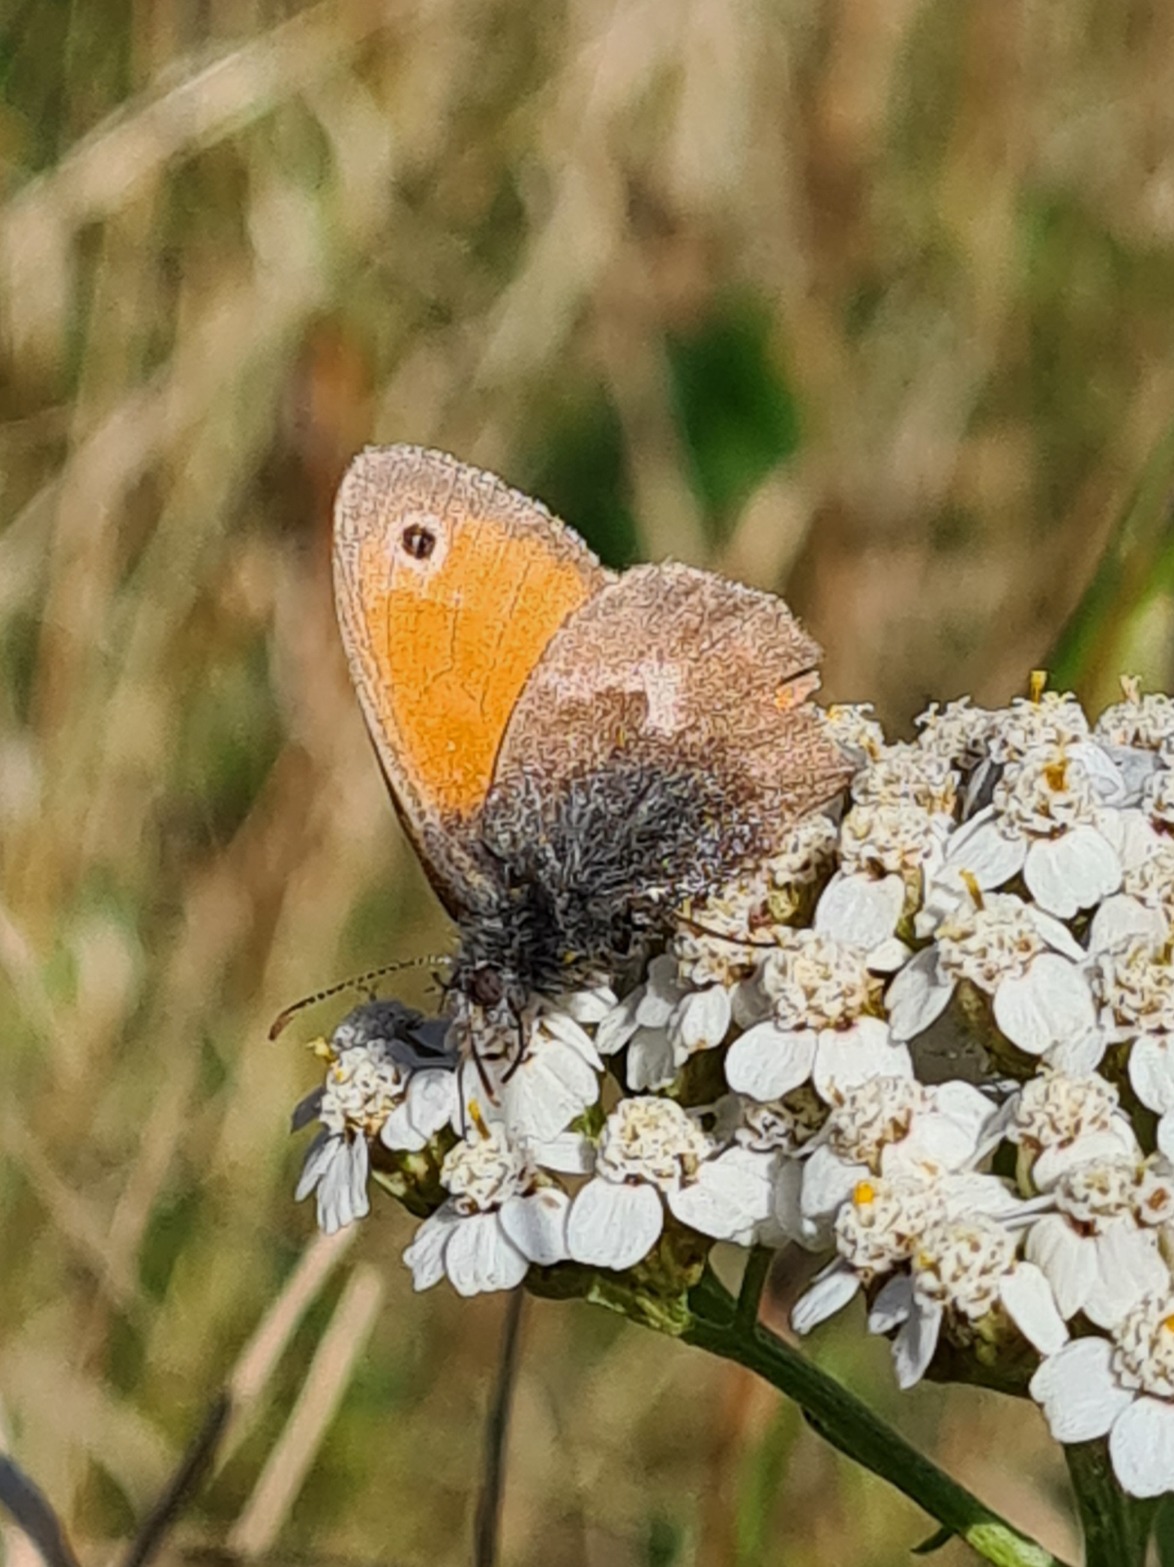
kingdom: Animalia
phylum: Arthropoda
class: Insecta
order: Lepidoptera
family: Nymphalidae
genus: Coenonympha
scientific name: Coenonympha pamphilus
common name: Okkergul randøje
